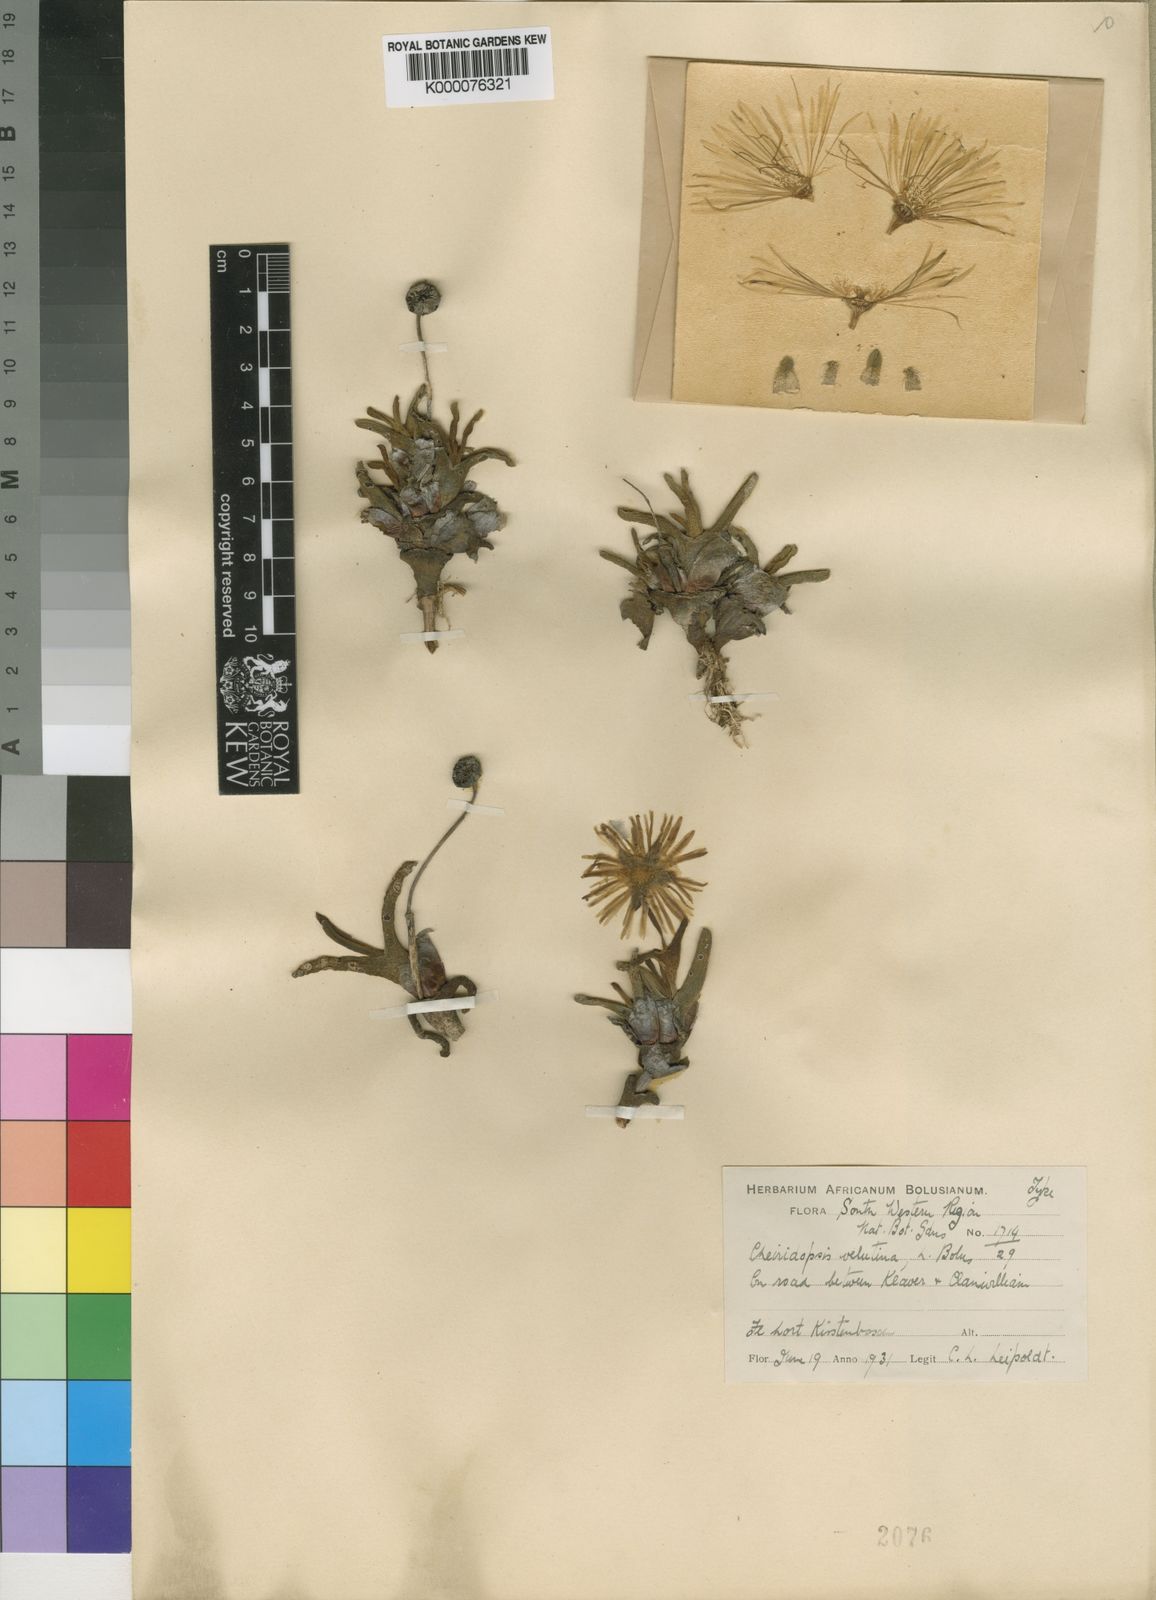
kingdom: Plantae
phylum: Tracheophyta
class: Magnoliopsida
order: Caryophyllales
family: Aizoaceae
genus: Cheiridopsis
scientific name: Cheiridopsis rostrata
